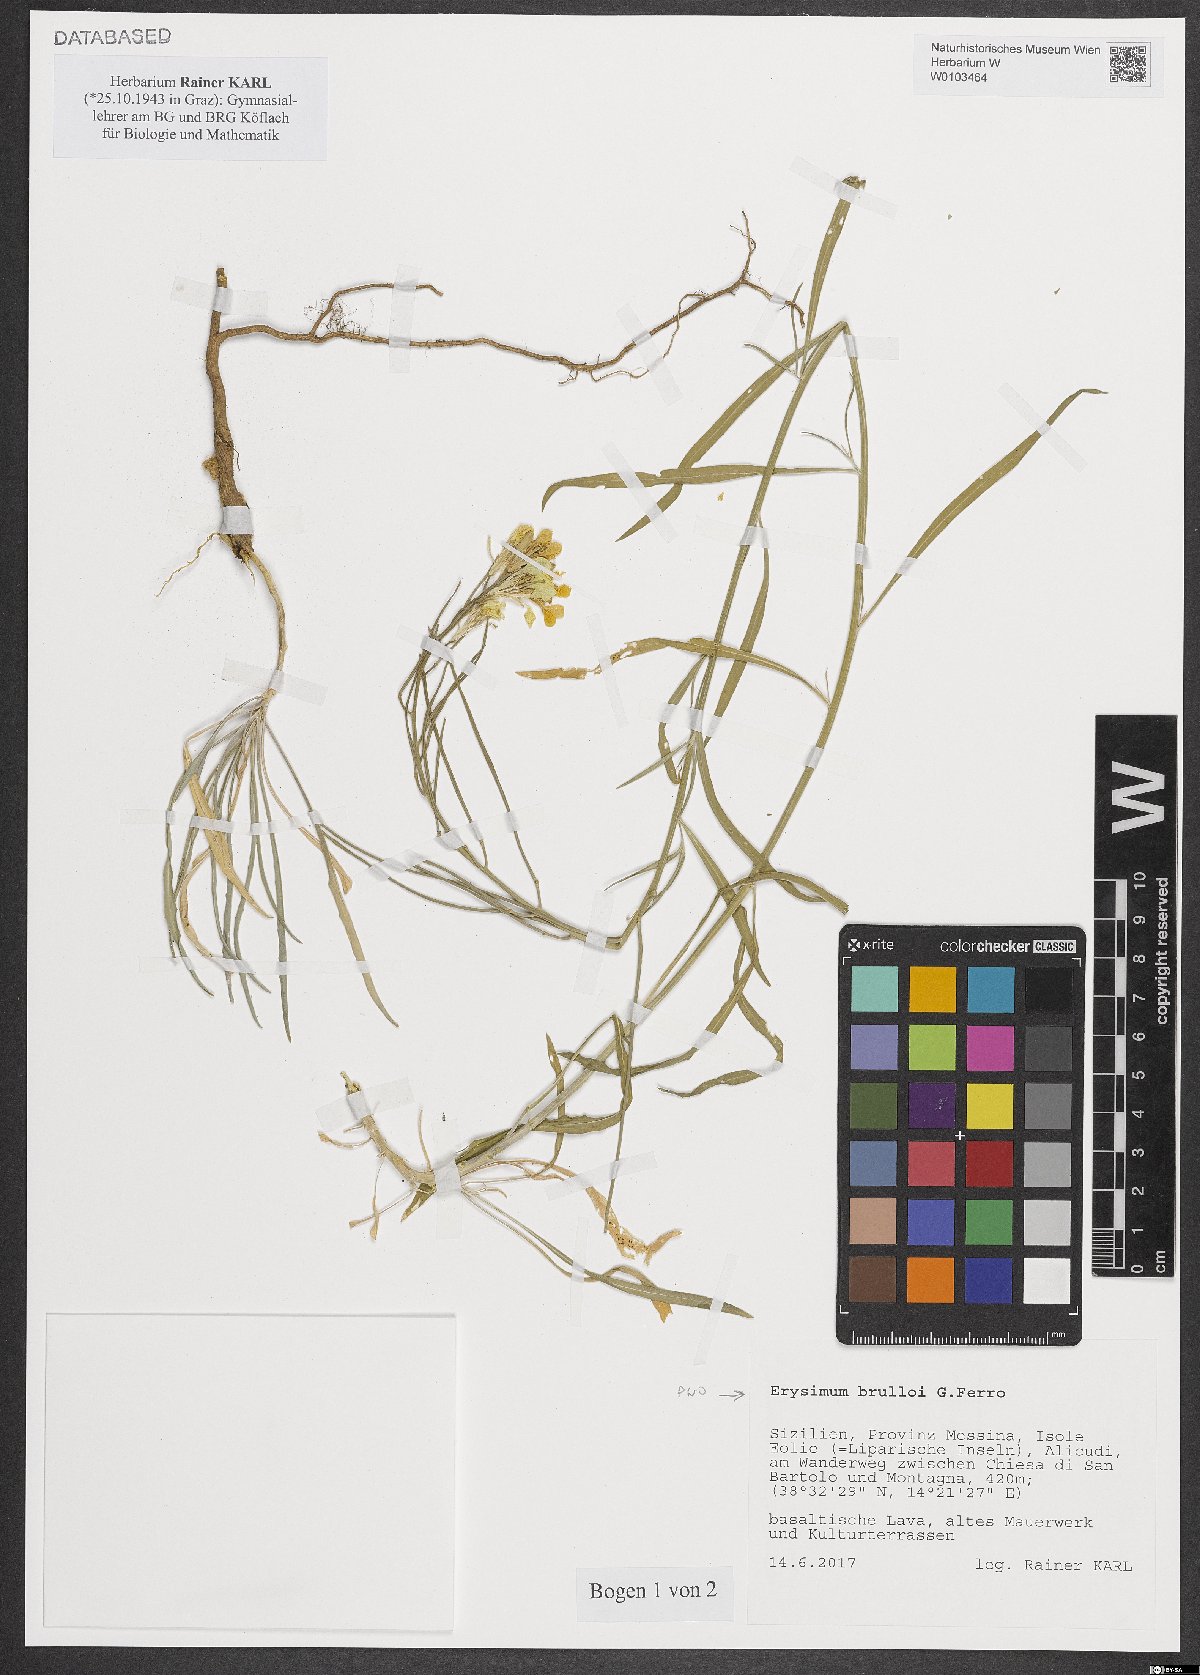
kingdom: Plantae
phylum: Tracheophyta
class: Magnoliopsida
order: Brassicales
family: Brassicaceae
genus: Erysimum
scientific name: Erysimum brulloi
